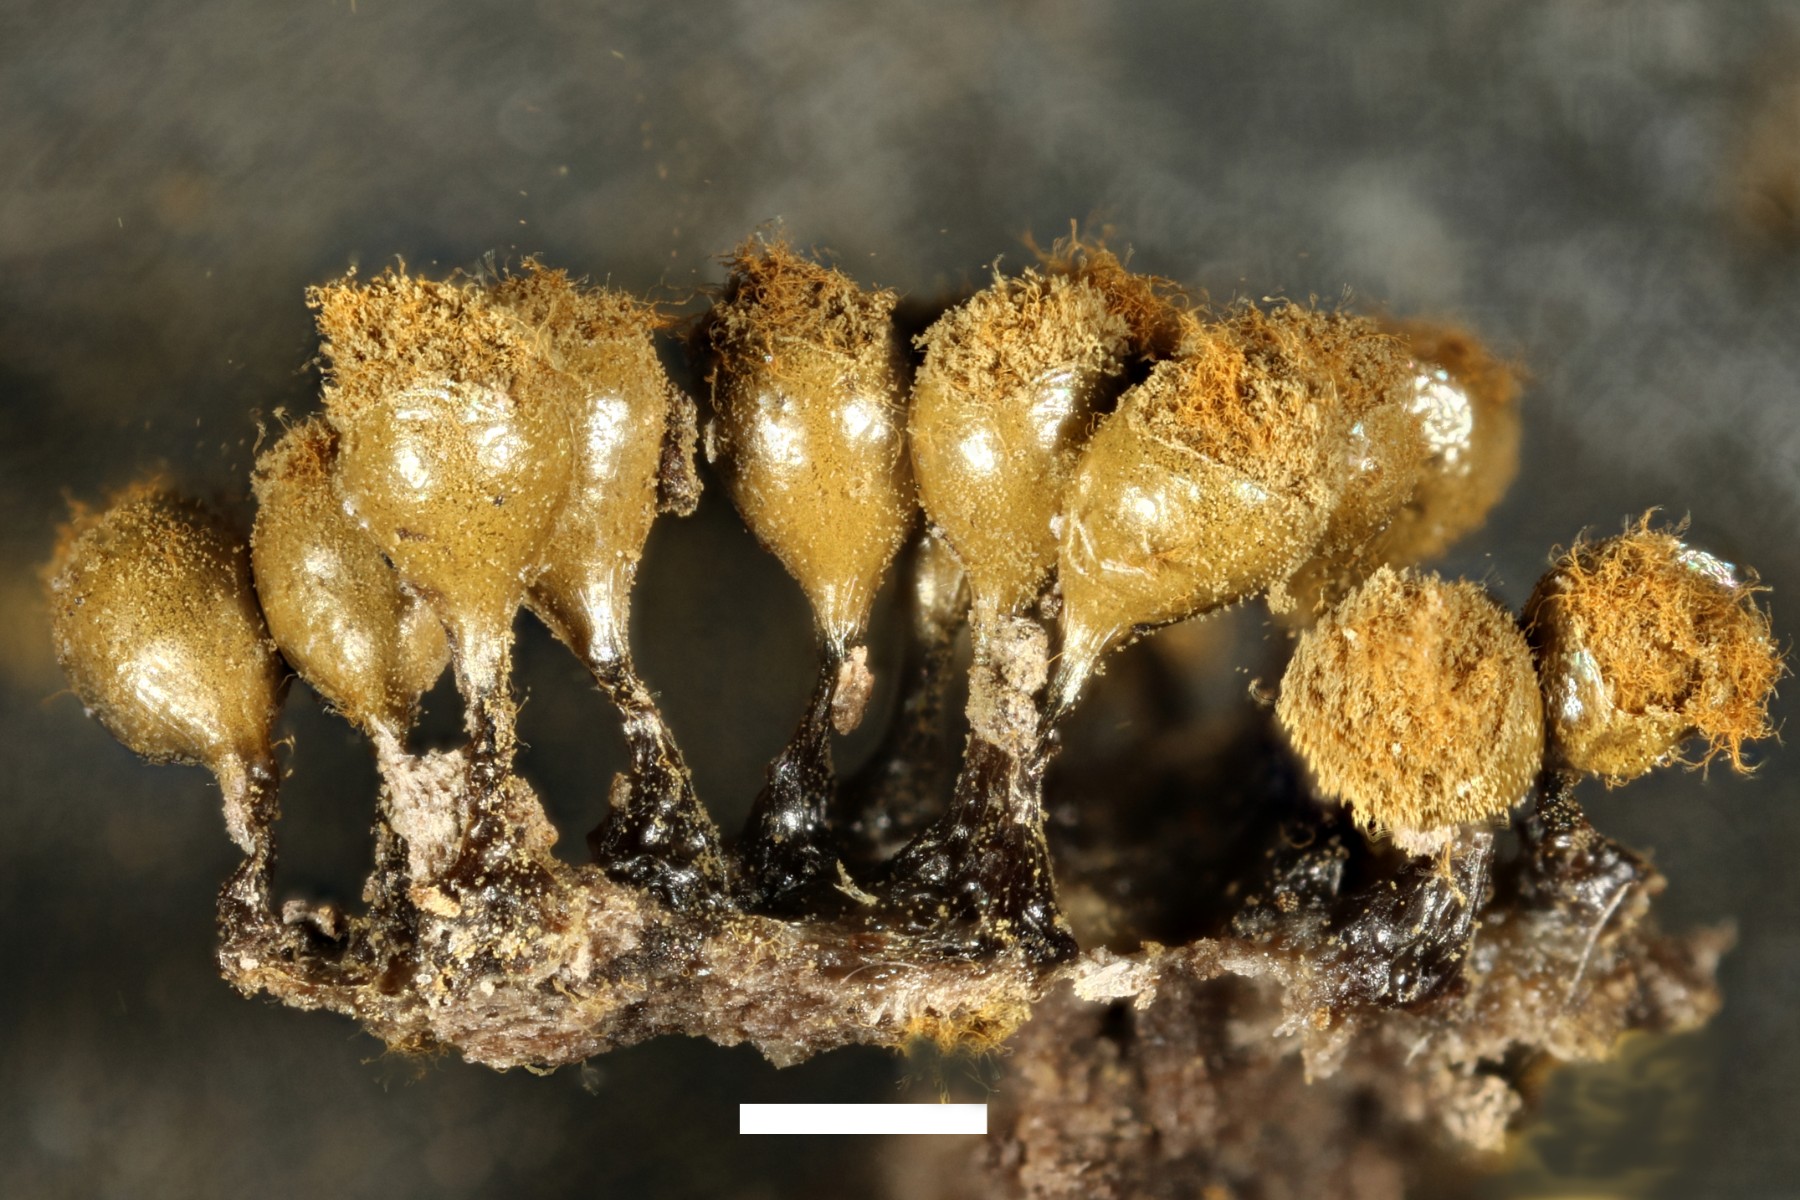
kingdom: Protozoa
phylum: Mycetozoa
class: Myxomycetes
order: Trichiales
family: Trichiaceae
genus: Trichia
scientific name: Trichia crateriformis
